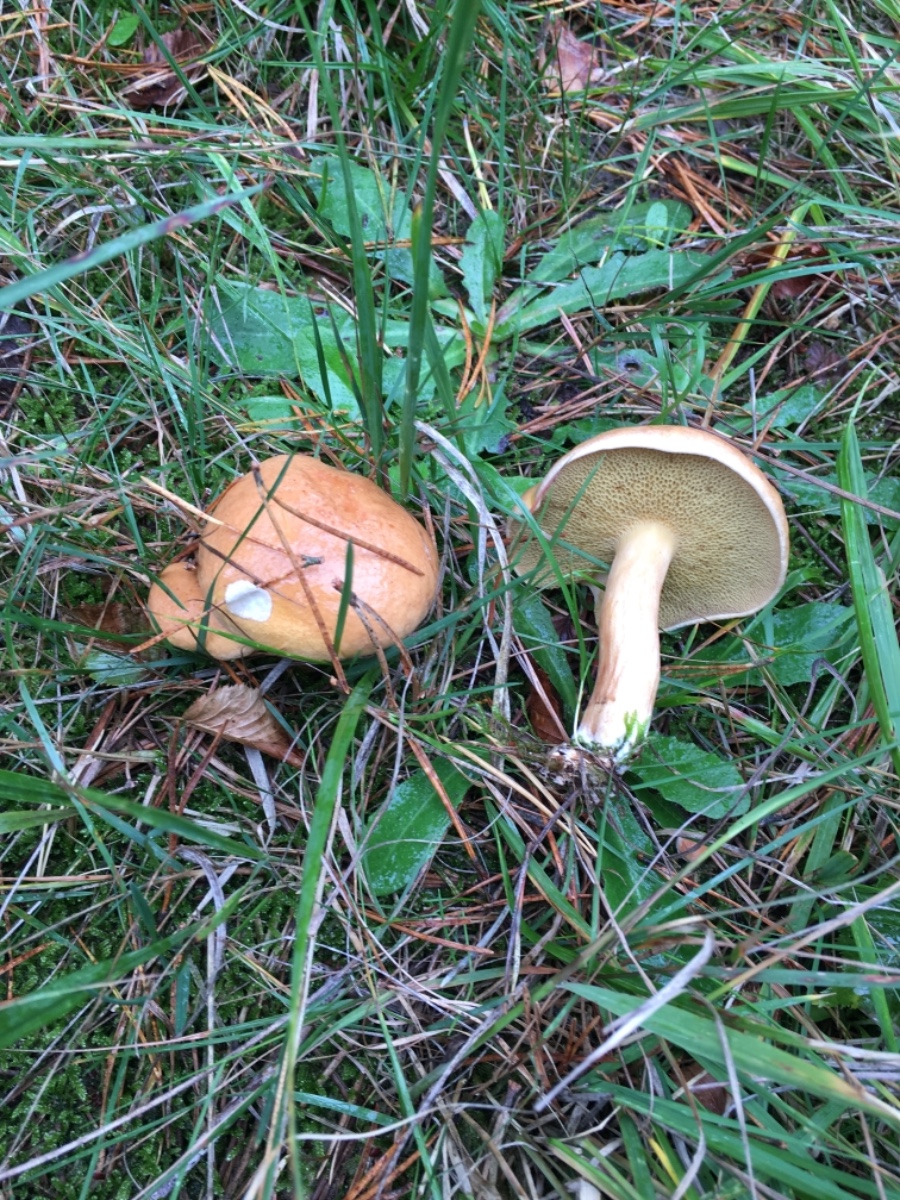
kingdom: Fungi
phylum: Basidiomycota
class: Agaricomycetes
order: Boletales
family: Suillaceae
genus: Suillus
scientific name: Suillus bovinus
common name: grovporet slimrørhat
